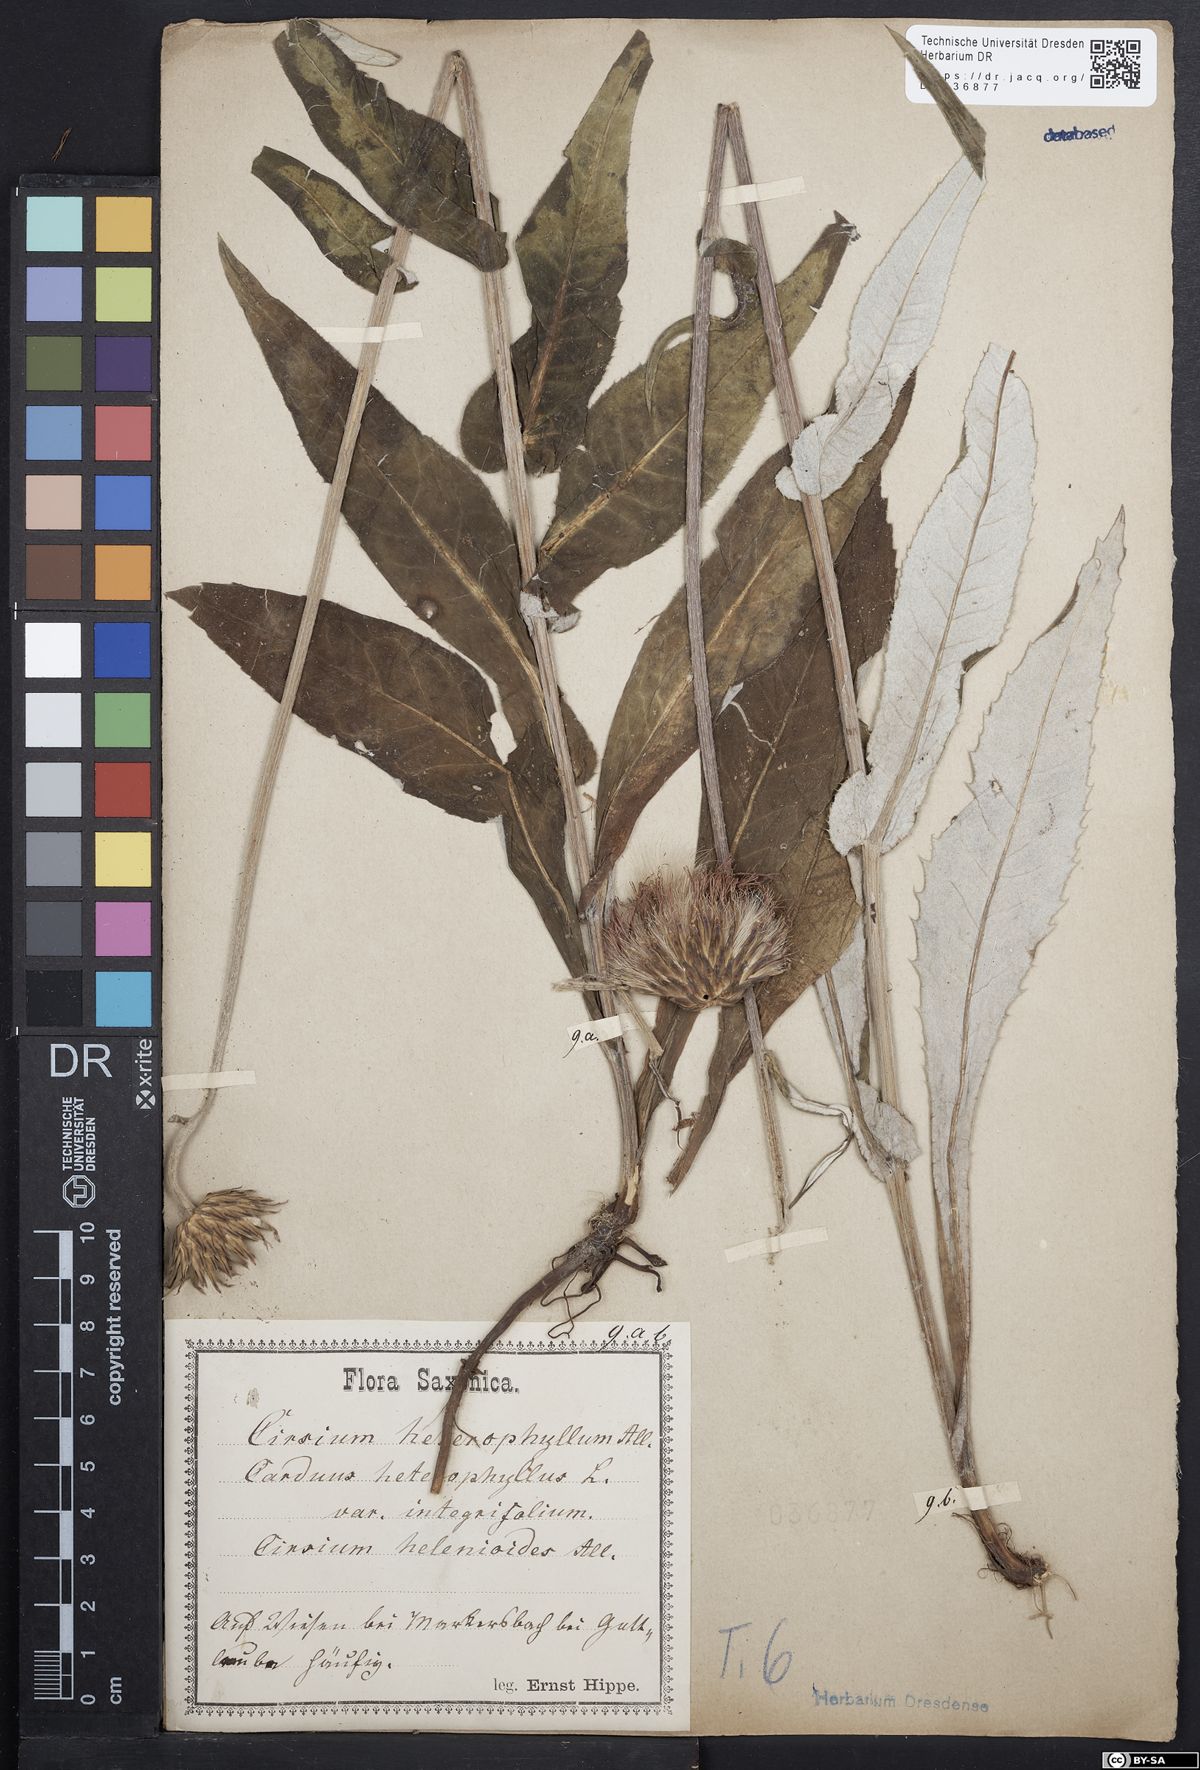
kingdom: Plantae
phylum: Tracheophyta
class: Magnoliopsida
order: Asterales
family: Asteraceae
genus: Cirsium
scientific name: Cirsium helenioides
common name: Melancholy thistle
